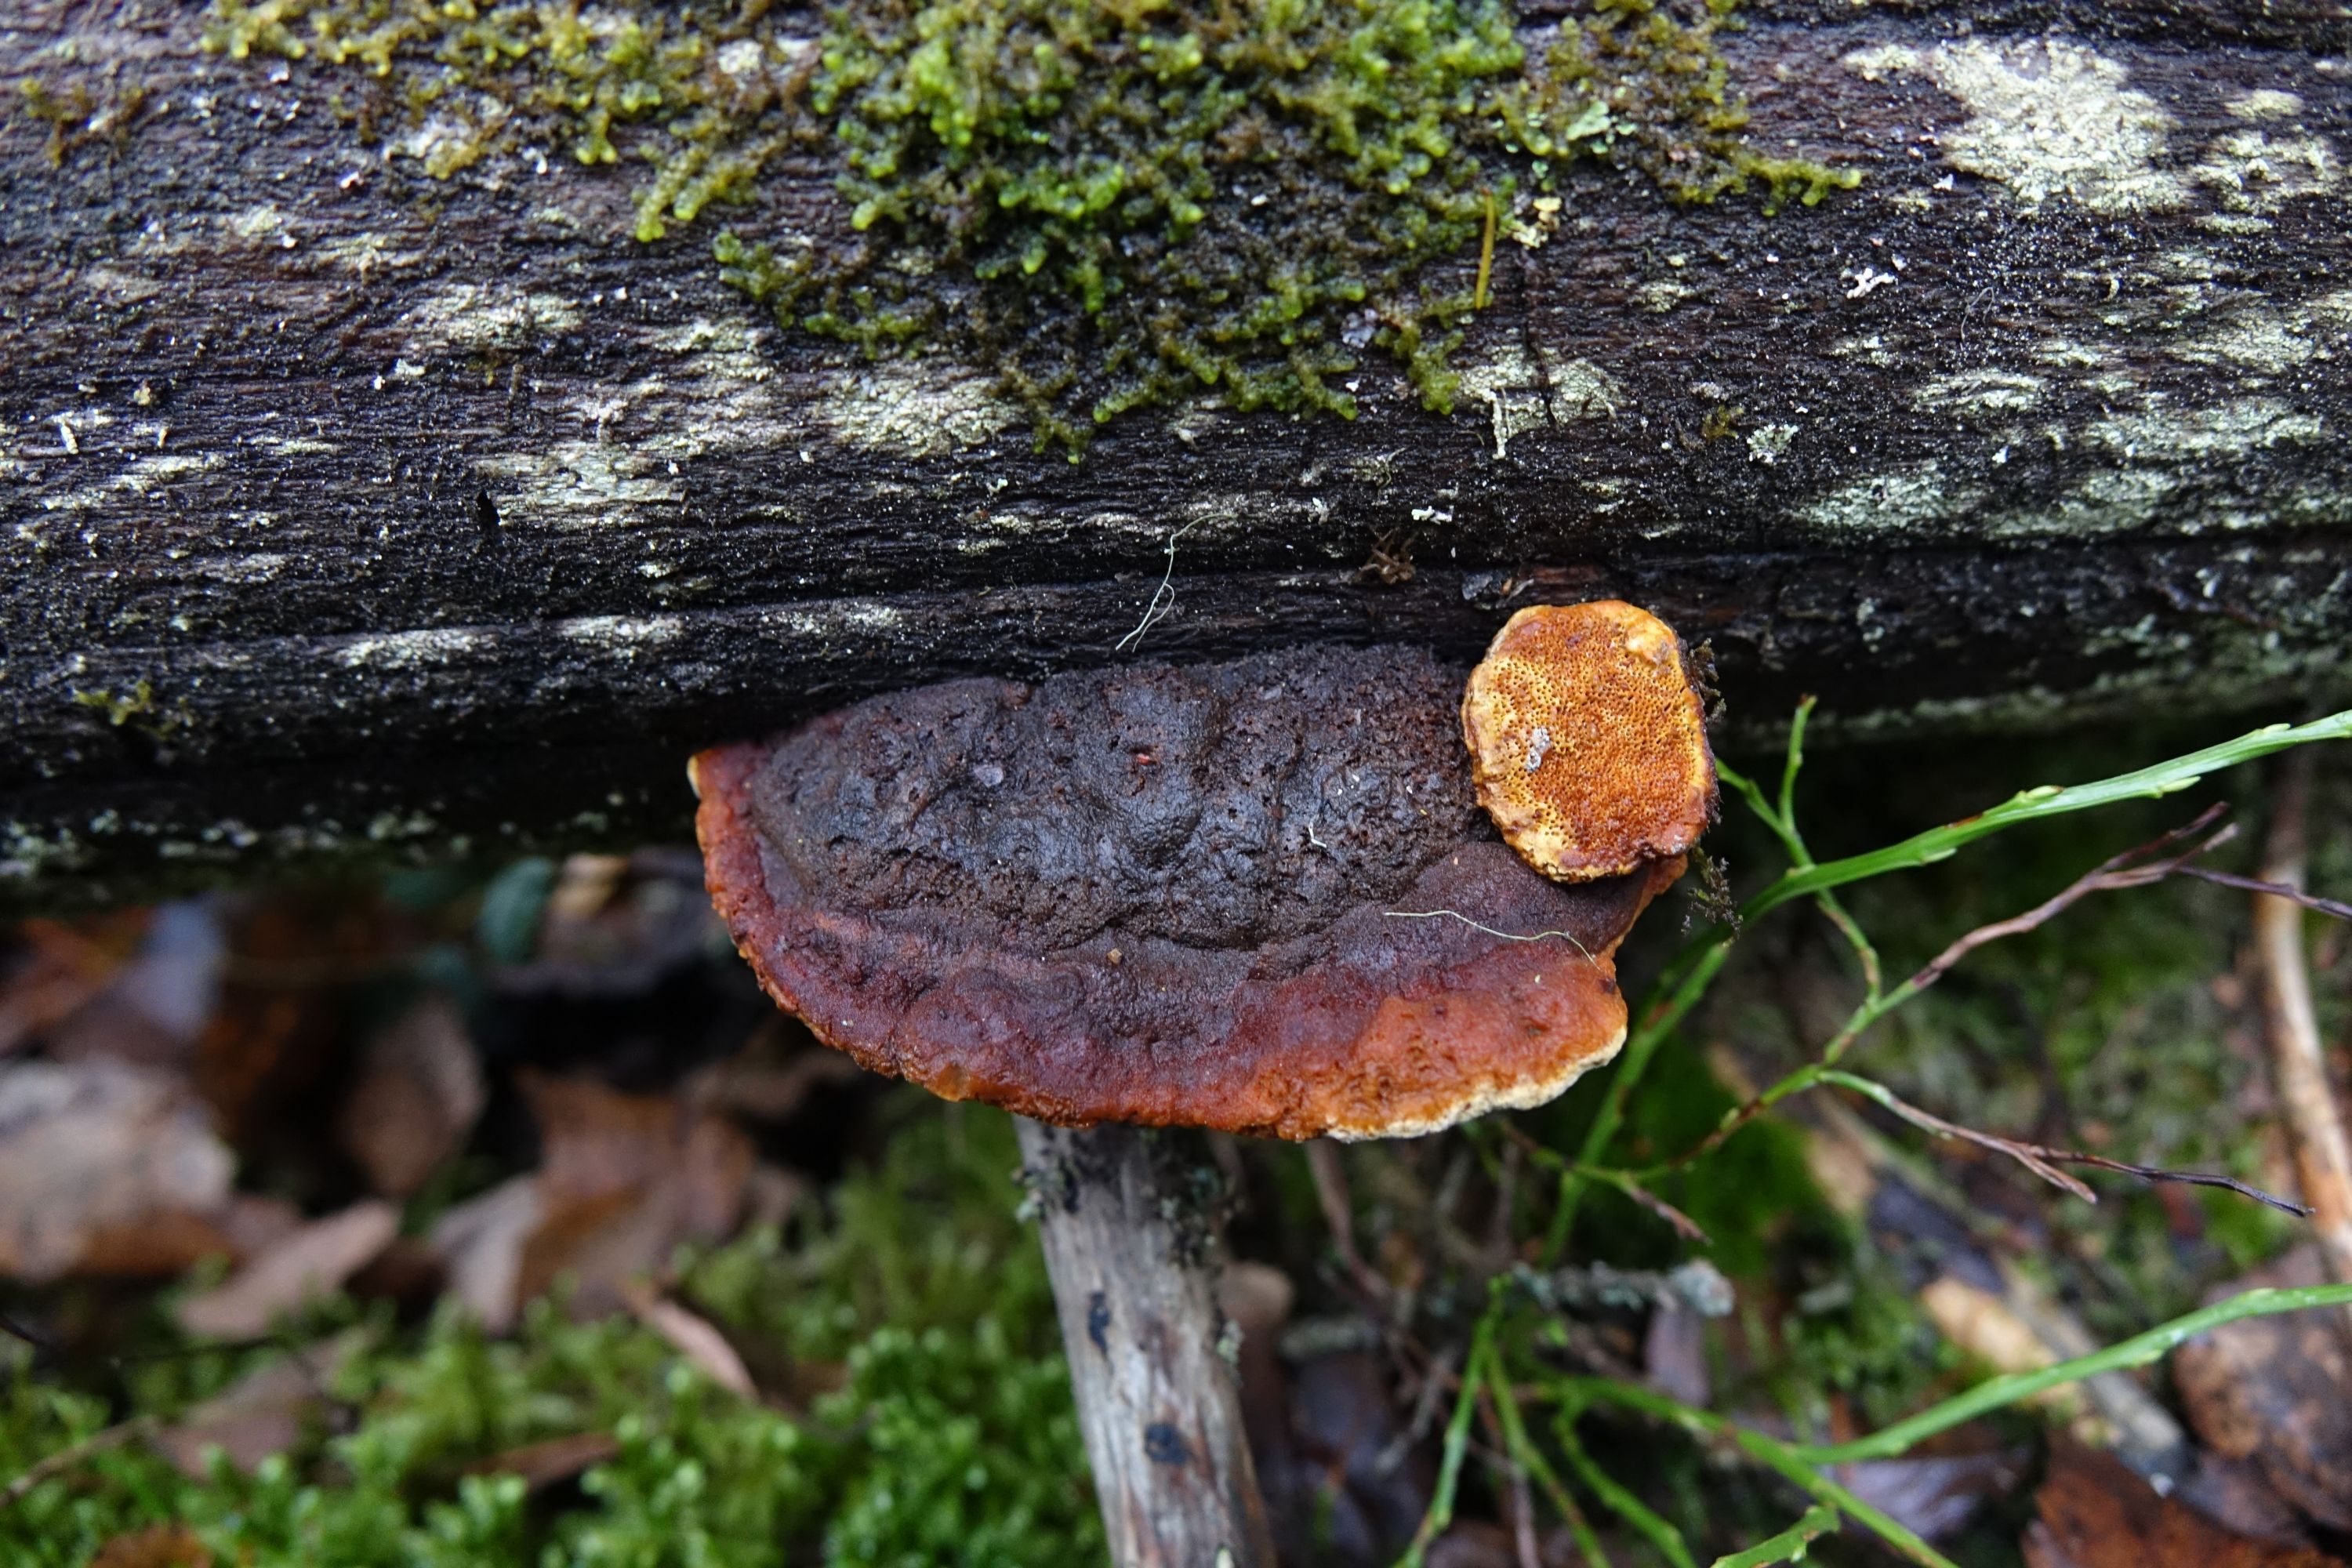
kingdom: Fungi
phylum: Basidiomycota
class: Agaricomycetes
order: Gloeophyllales
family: Gloeophyllaceae
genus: Gloeophyllum
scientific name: Gloeophyllum odoratum
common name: Anise mazegill
